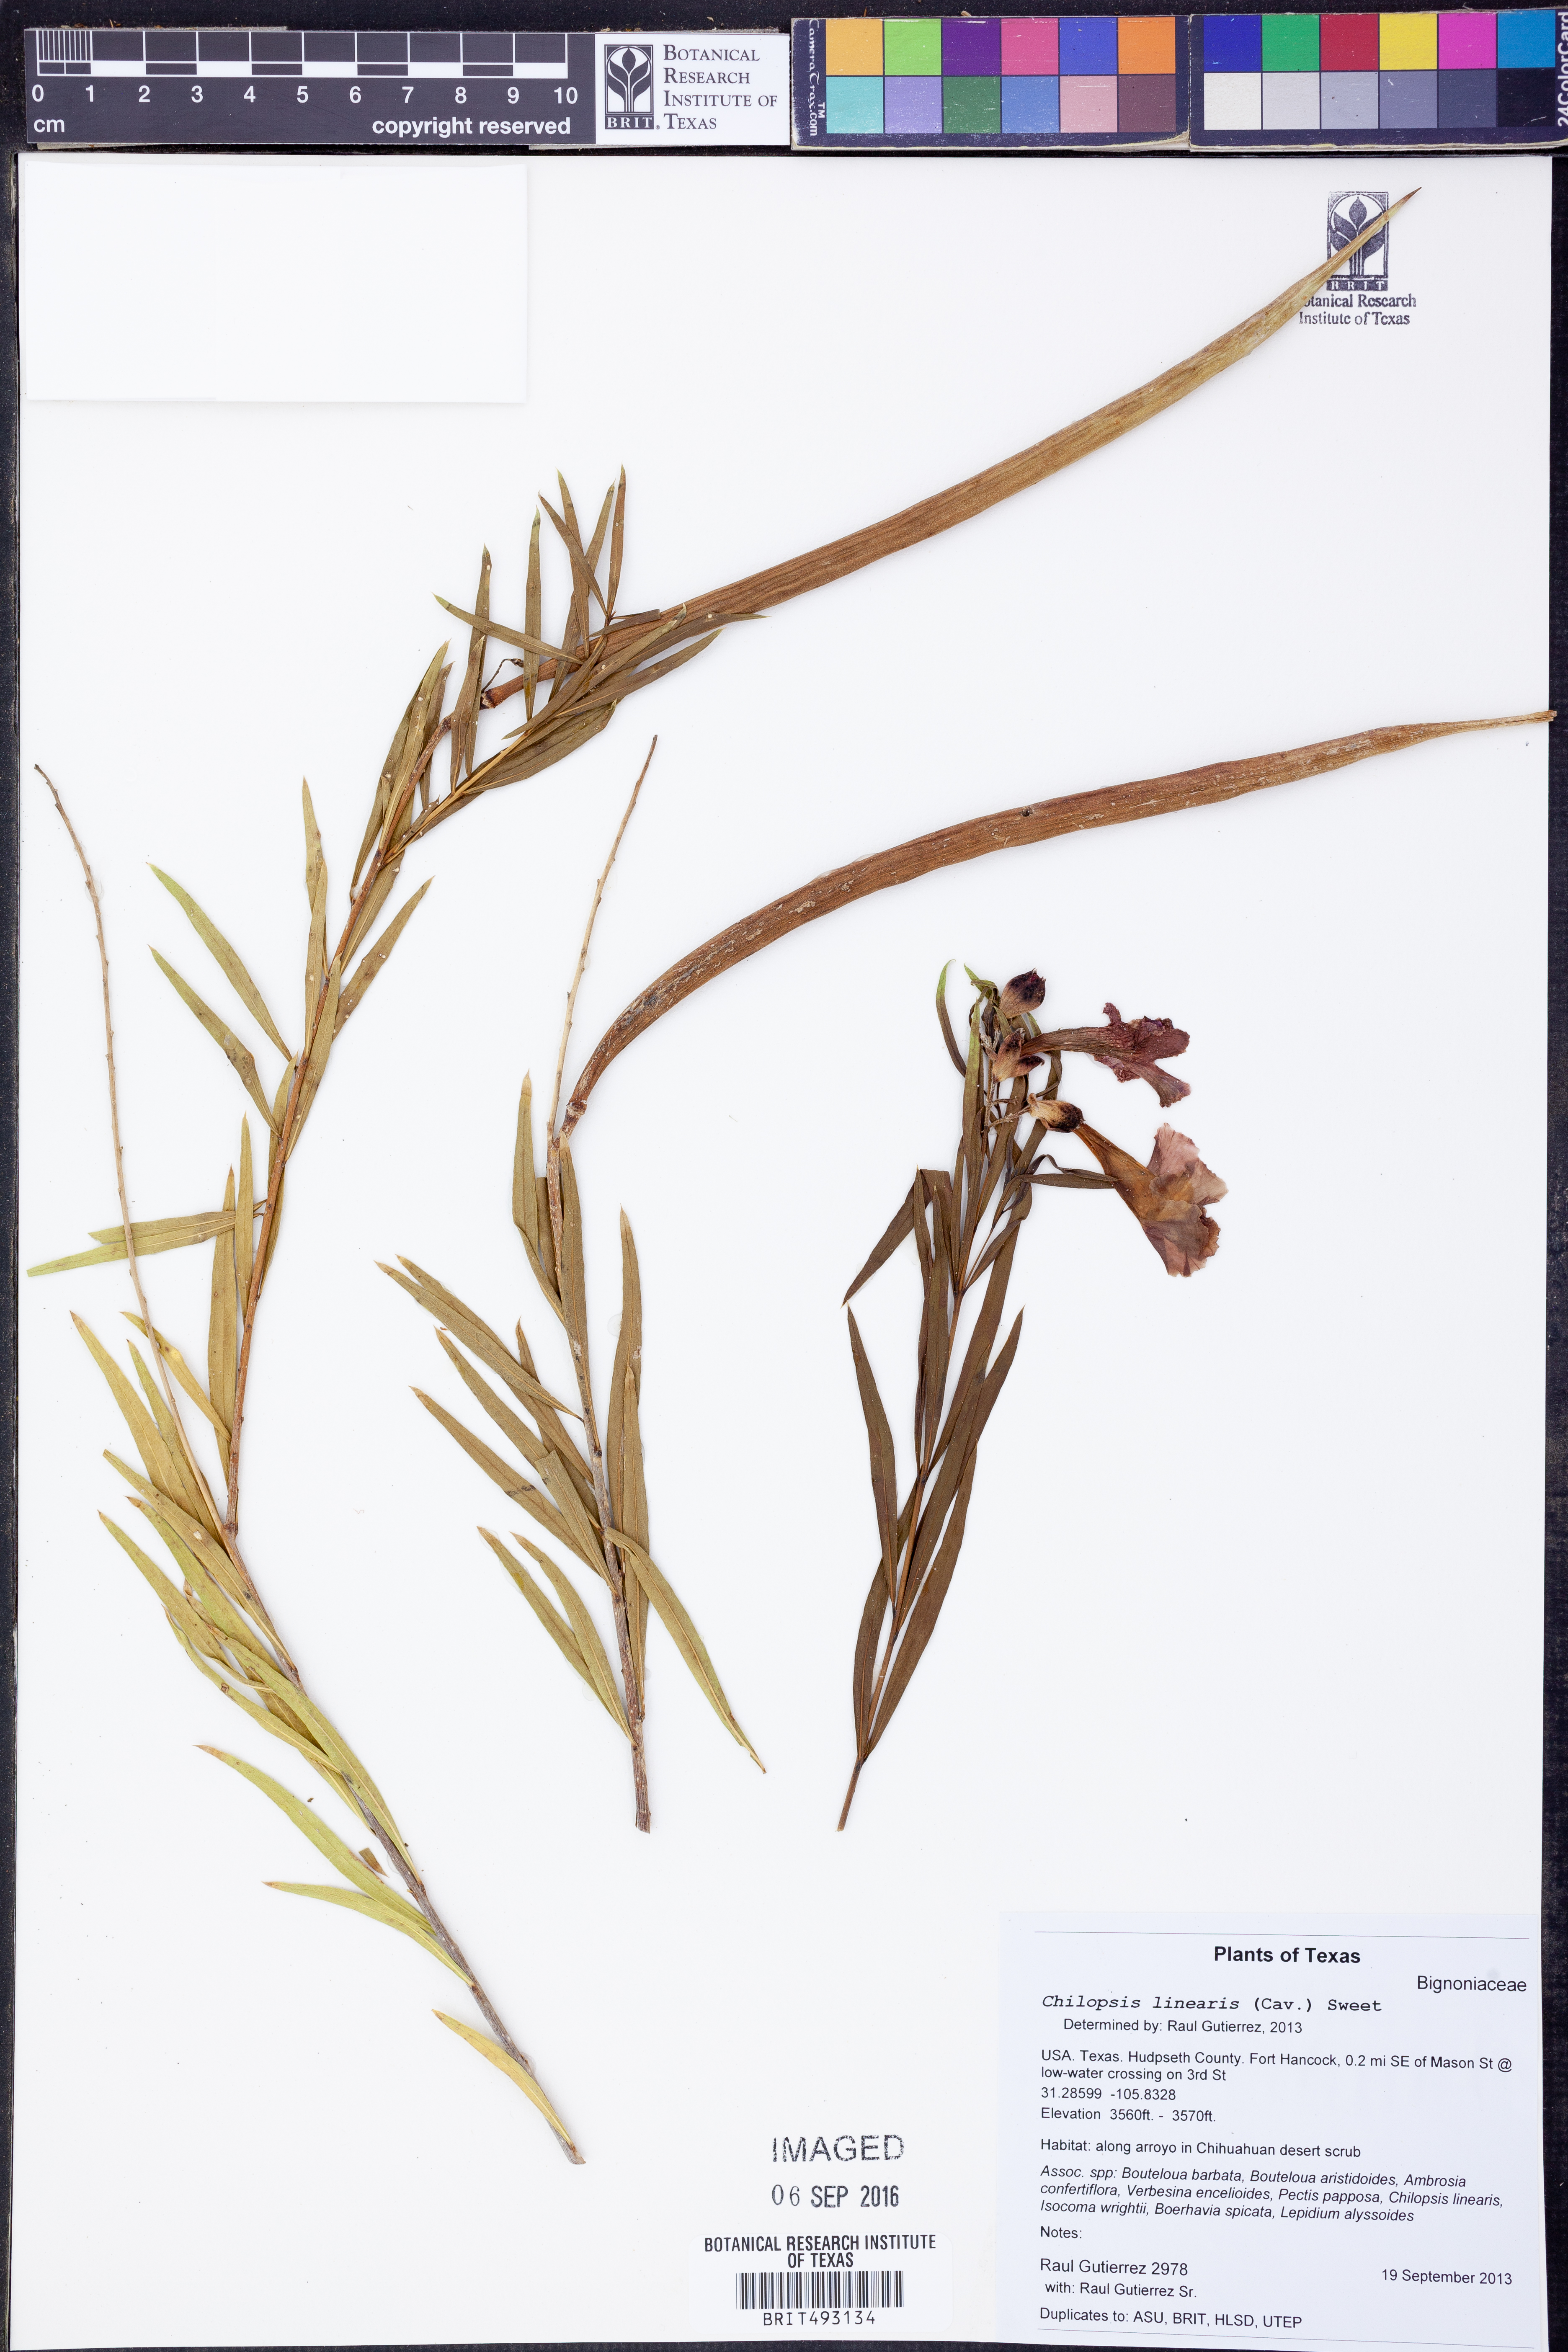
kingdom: Plantae
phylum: Tracheophyta
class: Magnoliopsida
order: Lamiales
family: Bignoniaceae
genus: Chilopsis
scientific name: Chilopsis linearis
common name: Desert-willow
